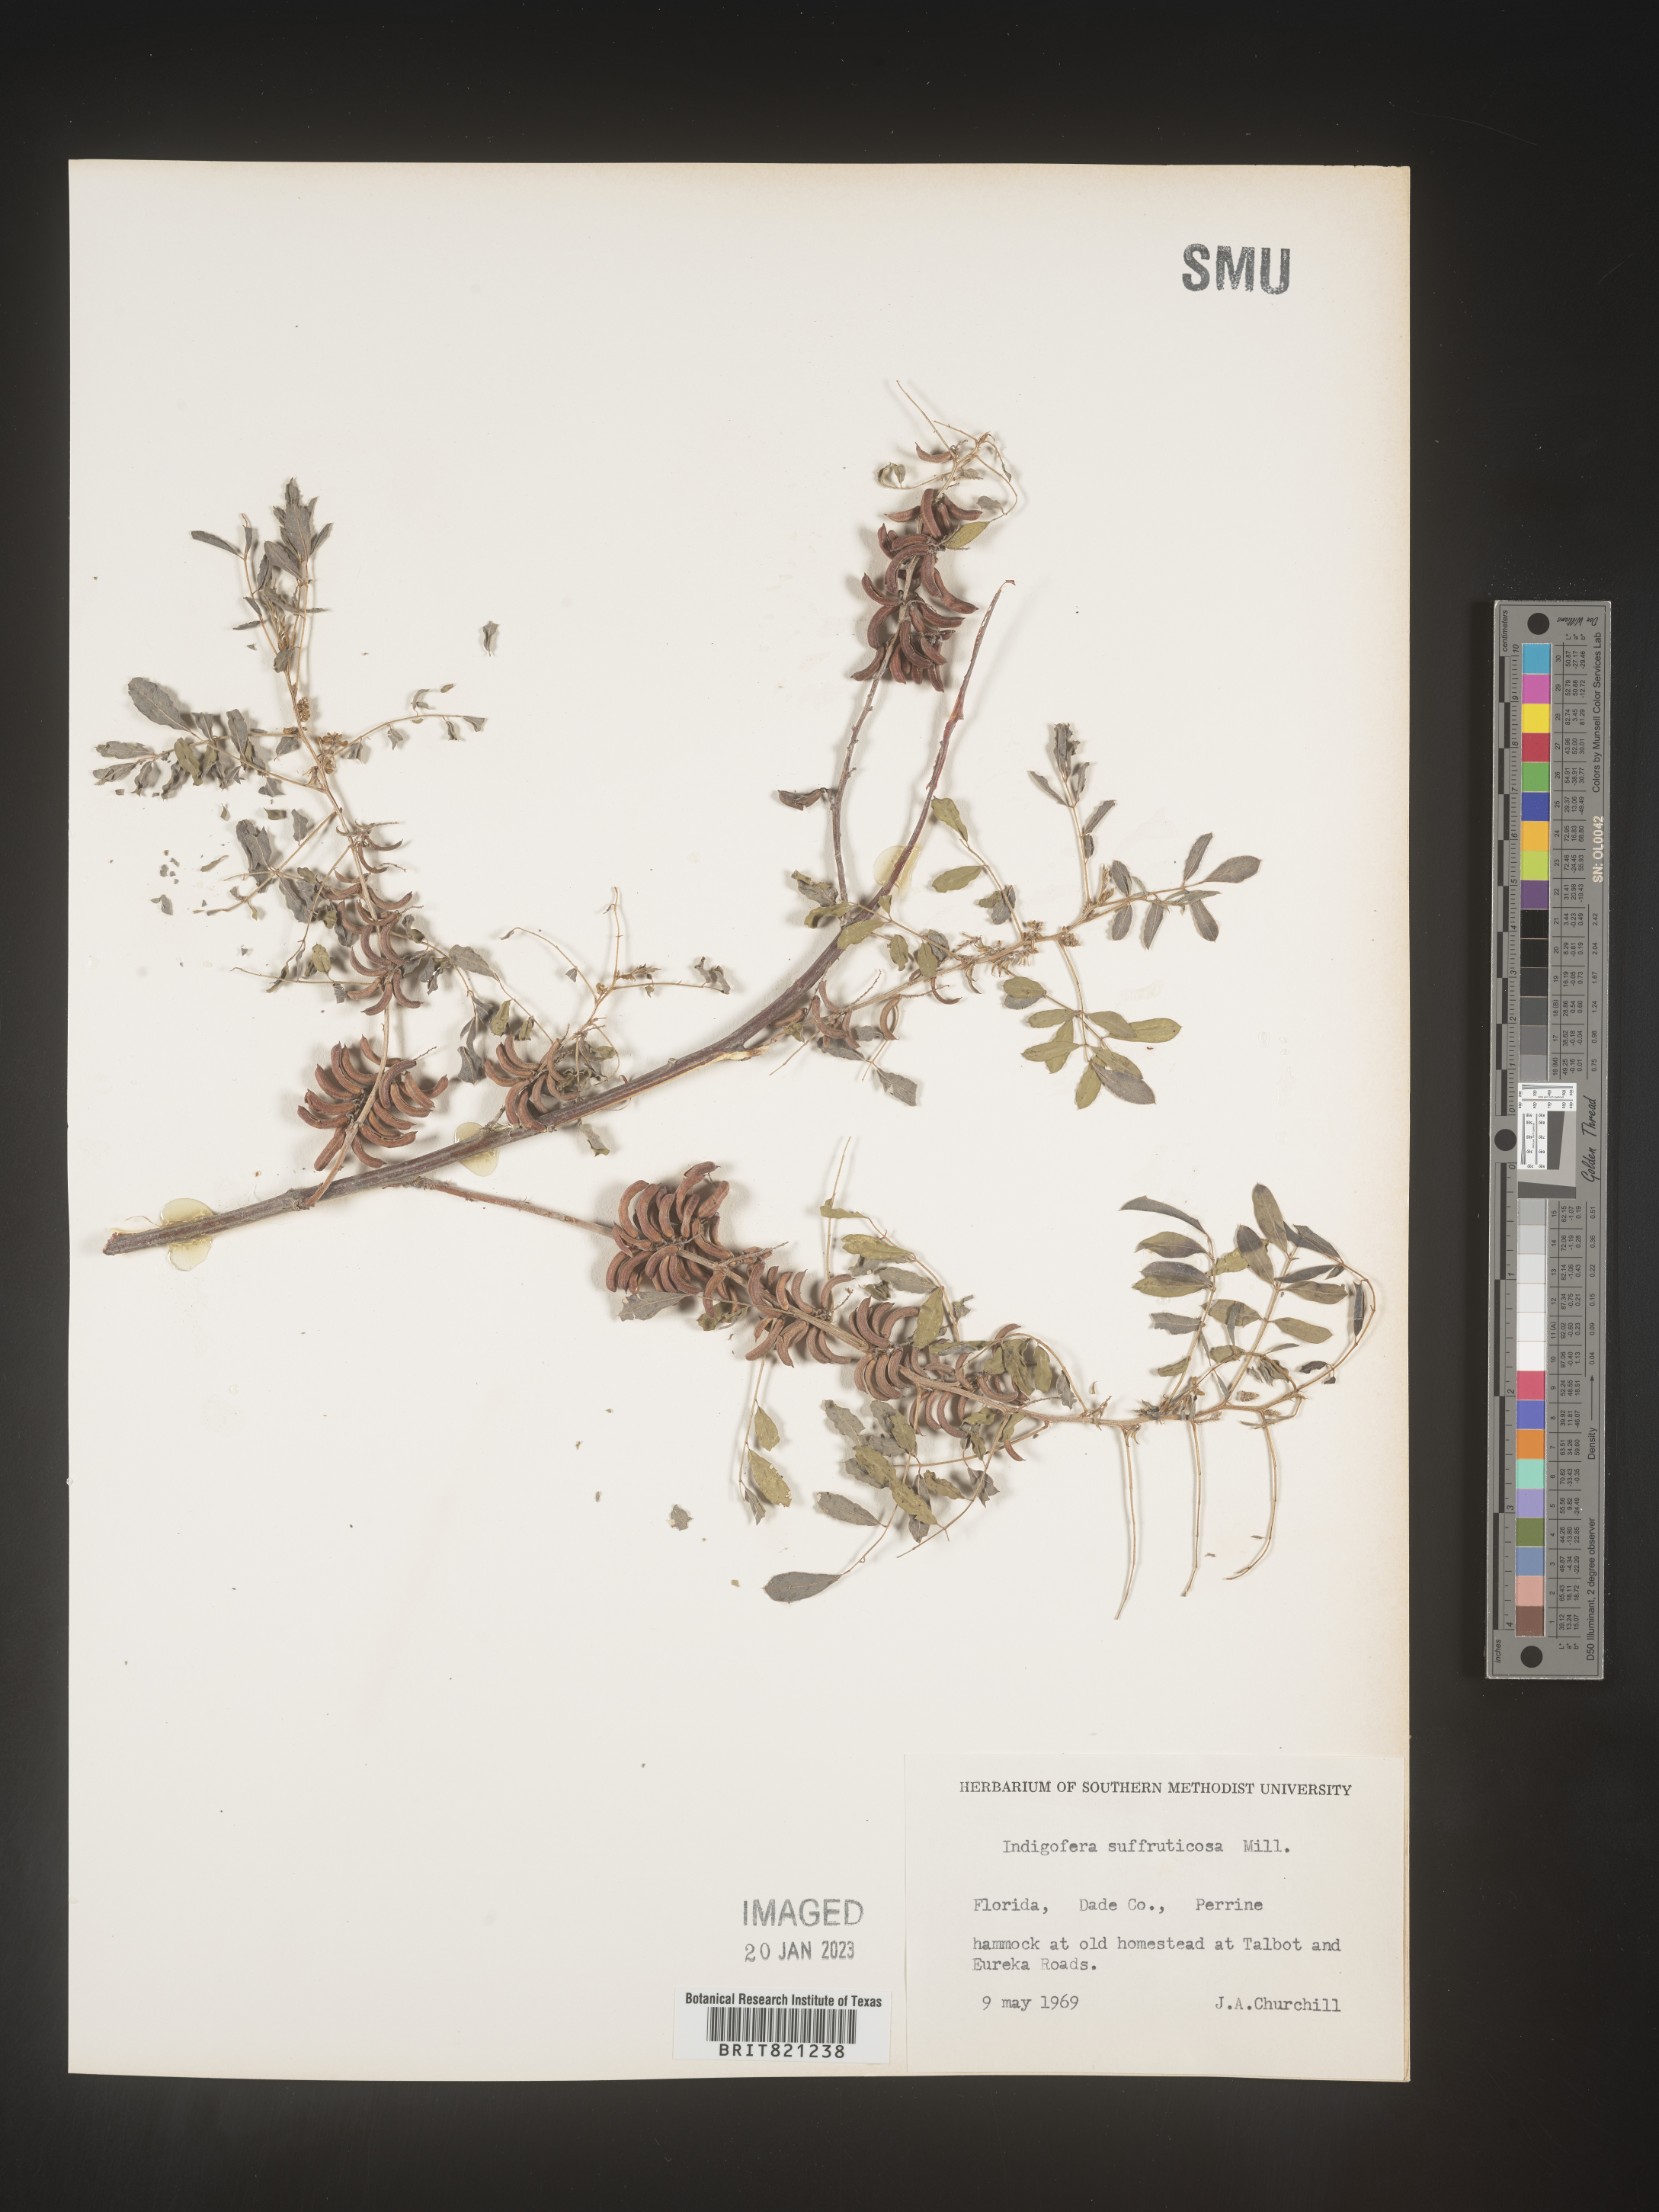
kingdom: Plantae
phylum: Tracheophyta
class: Magnoliopsida
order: Fabales
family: Fabaceae
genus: Indigofera
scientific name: Indigofera
